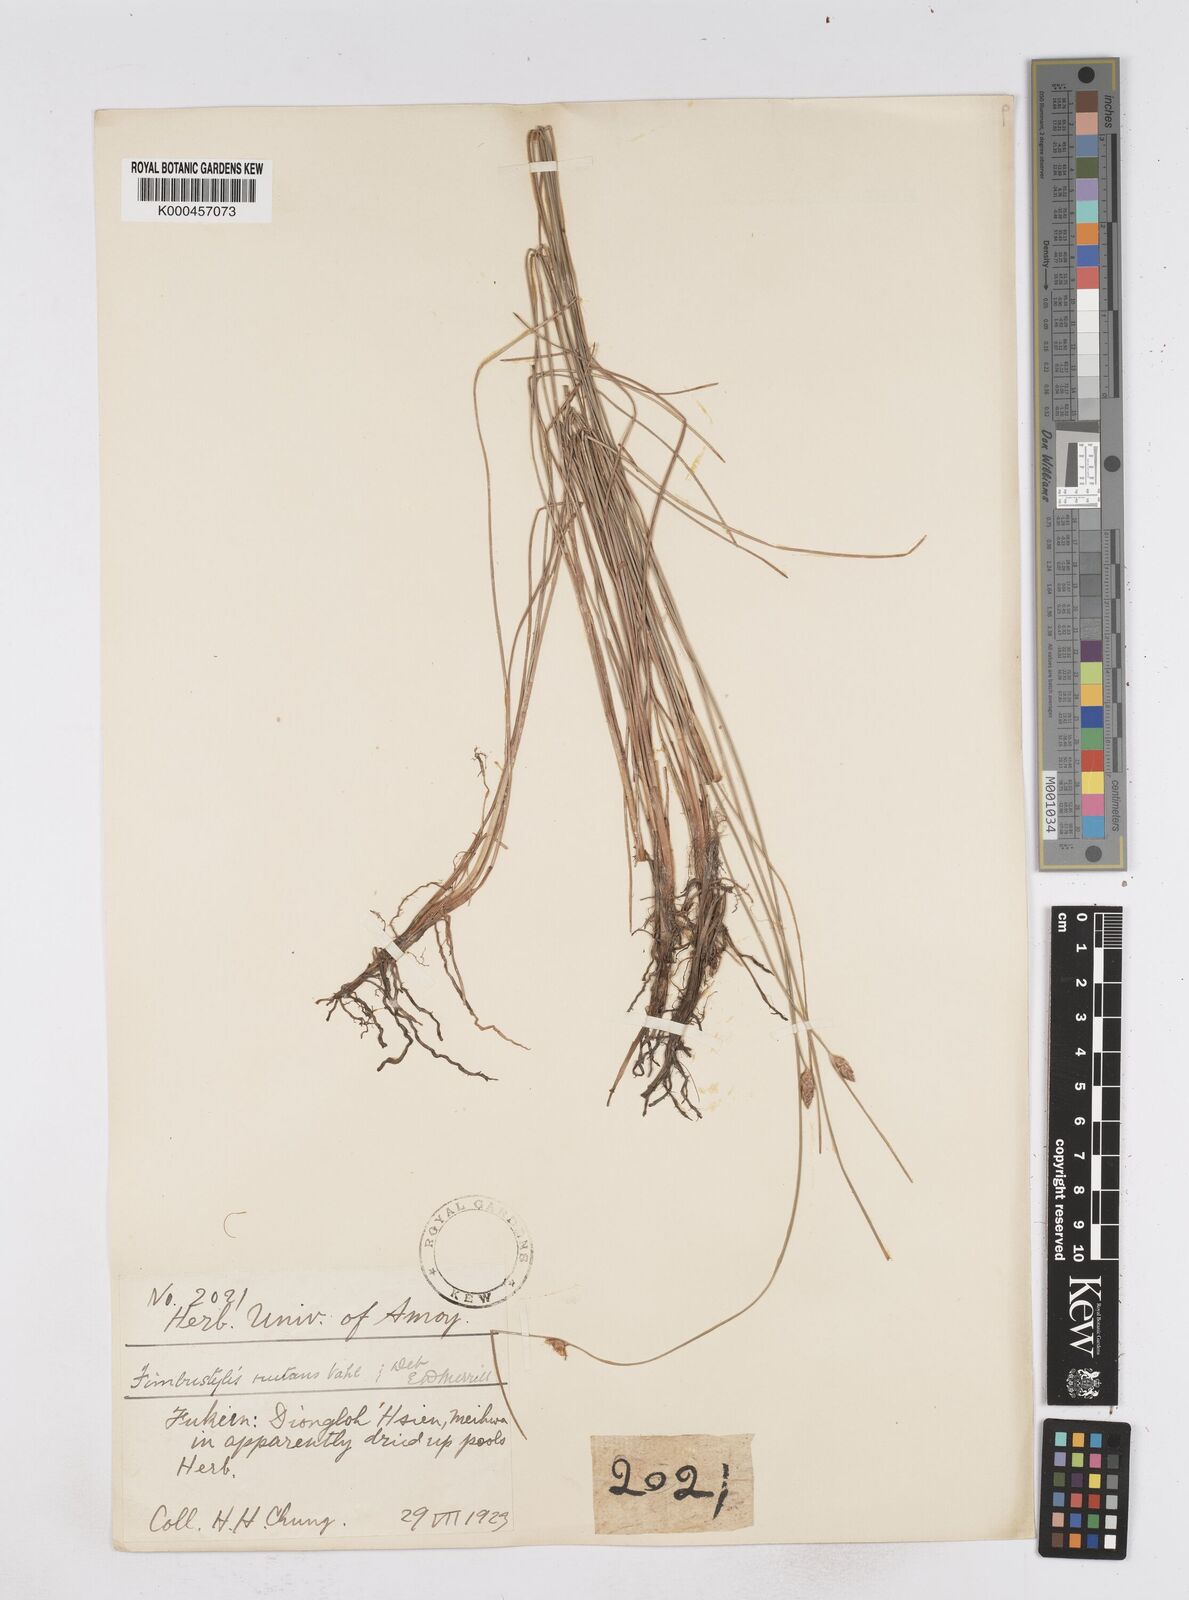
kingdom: Plantae
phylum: Tracheophyta
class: Liliopsida
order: Poales
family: Cyperaceae
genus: Fimbristylis
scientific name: Fimbristylis nutans
